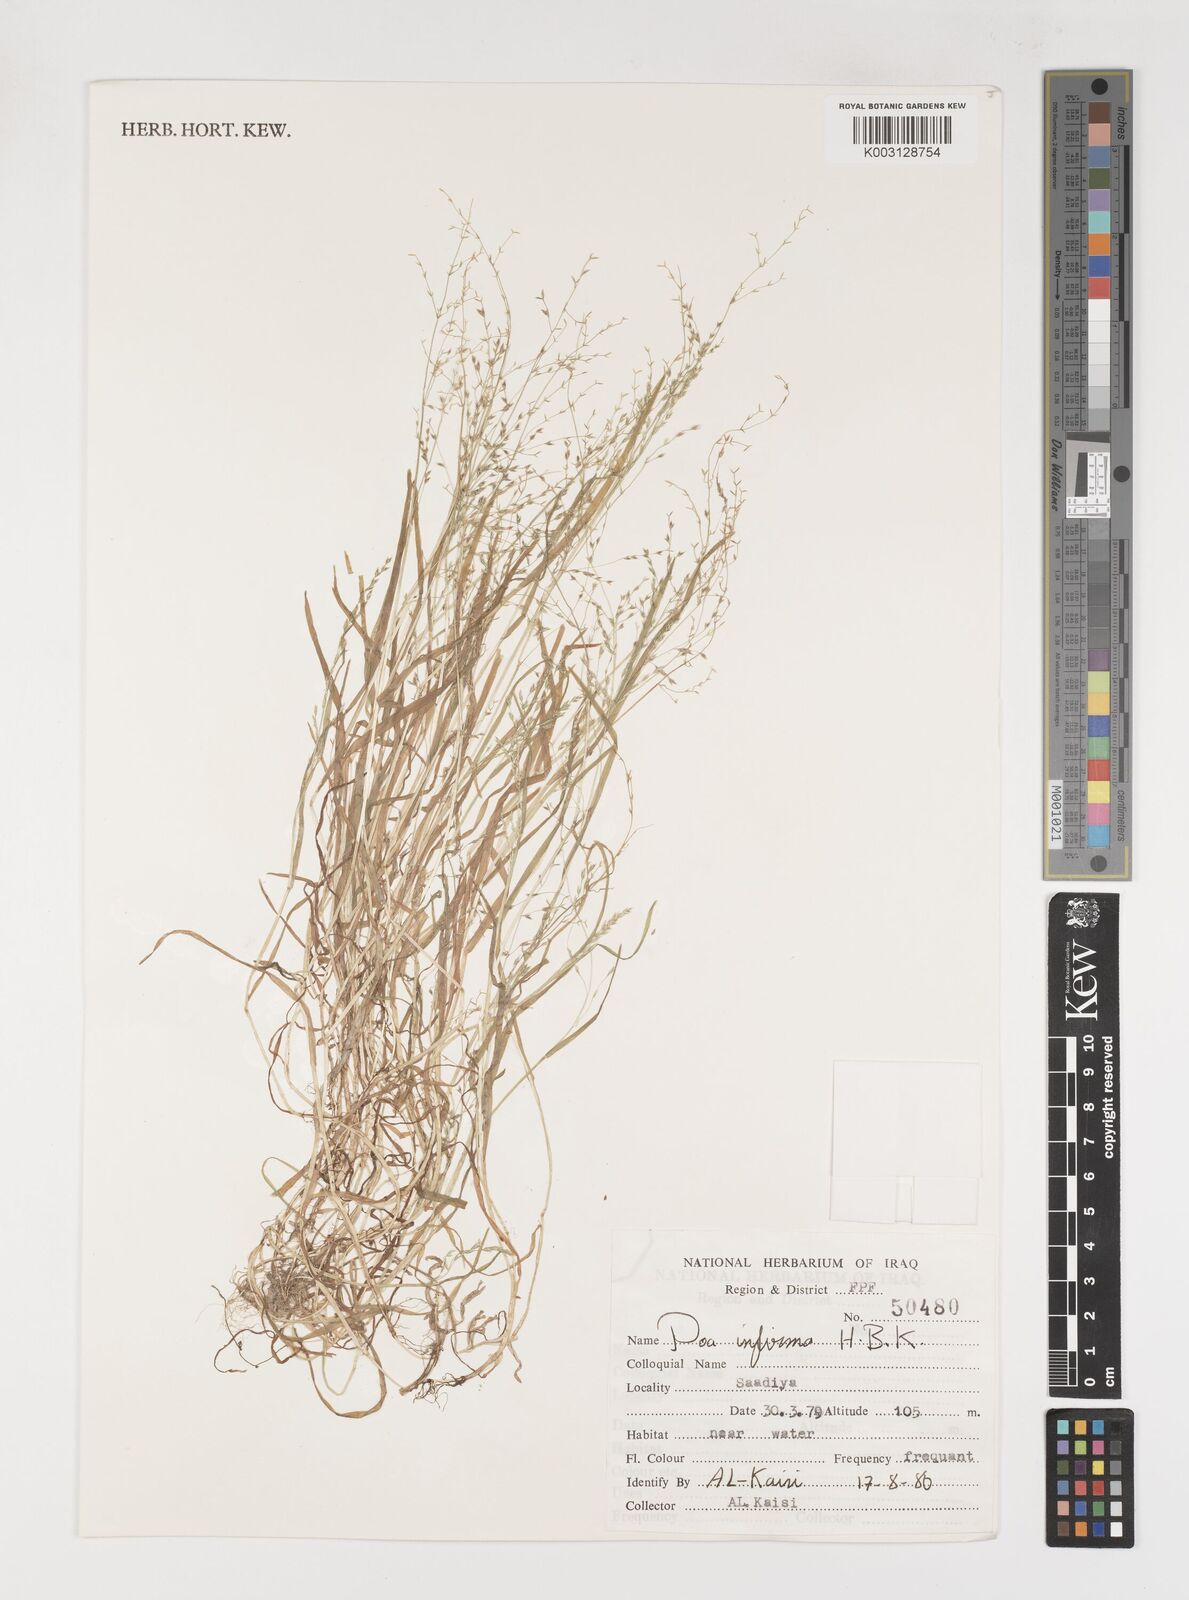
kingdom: Plantae
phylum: Tracheophyta
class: Liliopsida
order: Poales
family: Poaceae
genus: Poa
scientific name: Poa infirma
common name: Weak bluegrass
